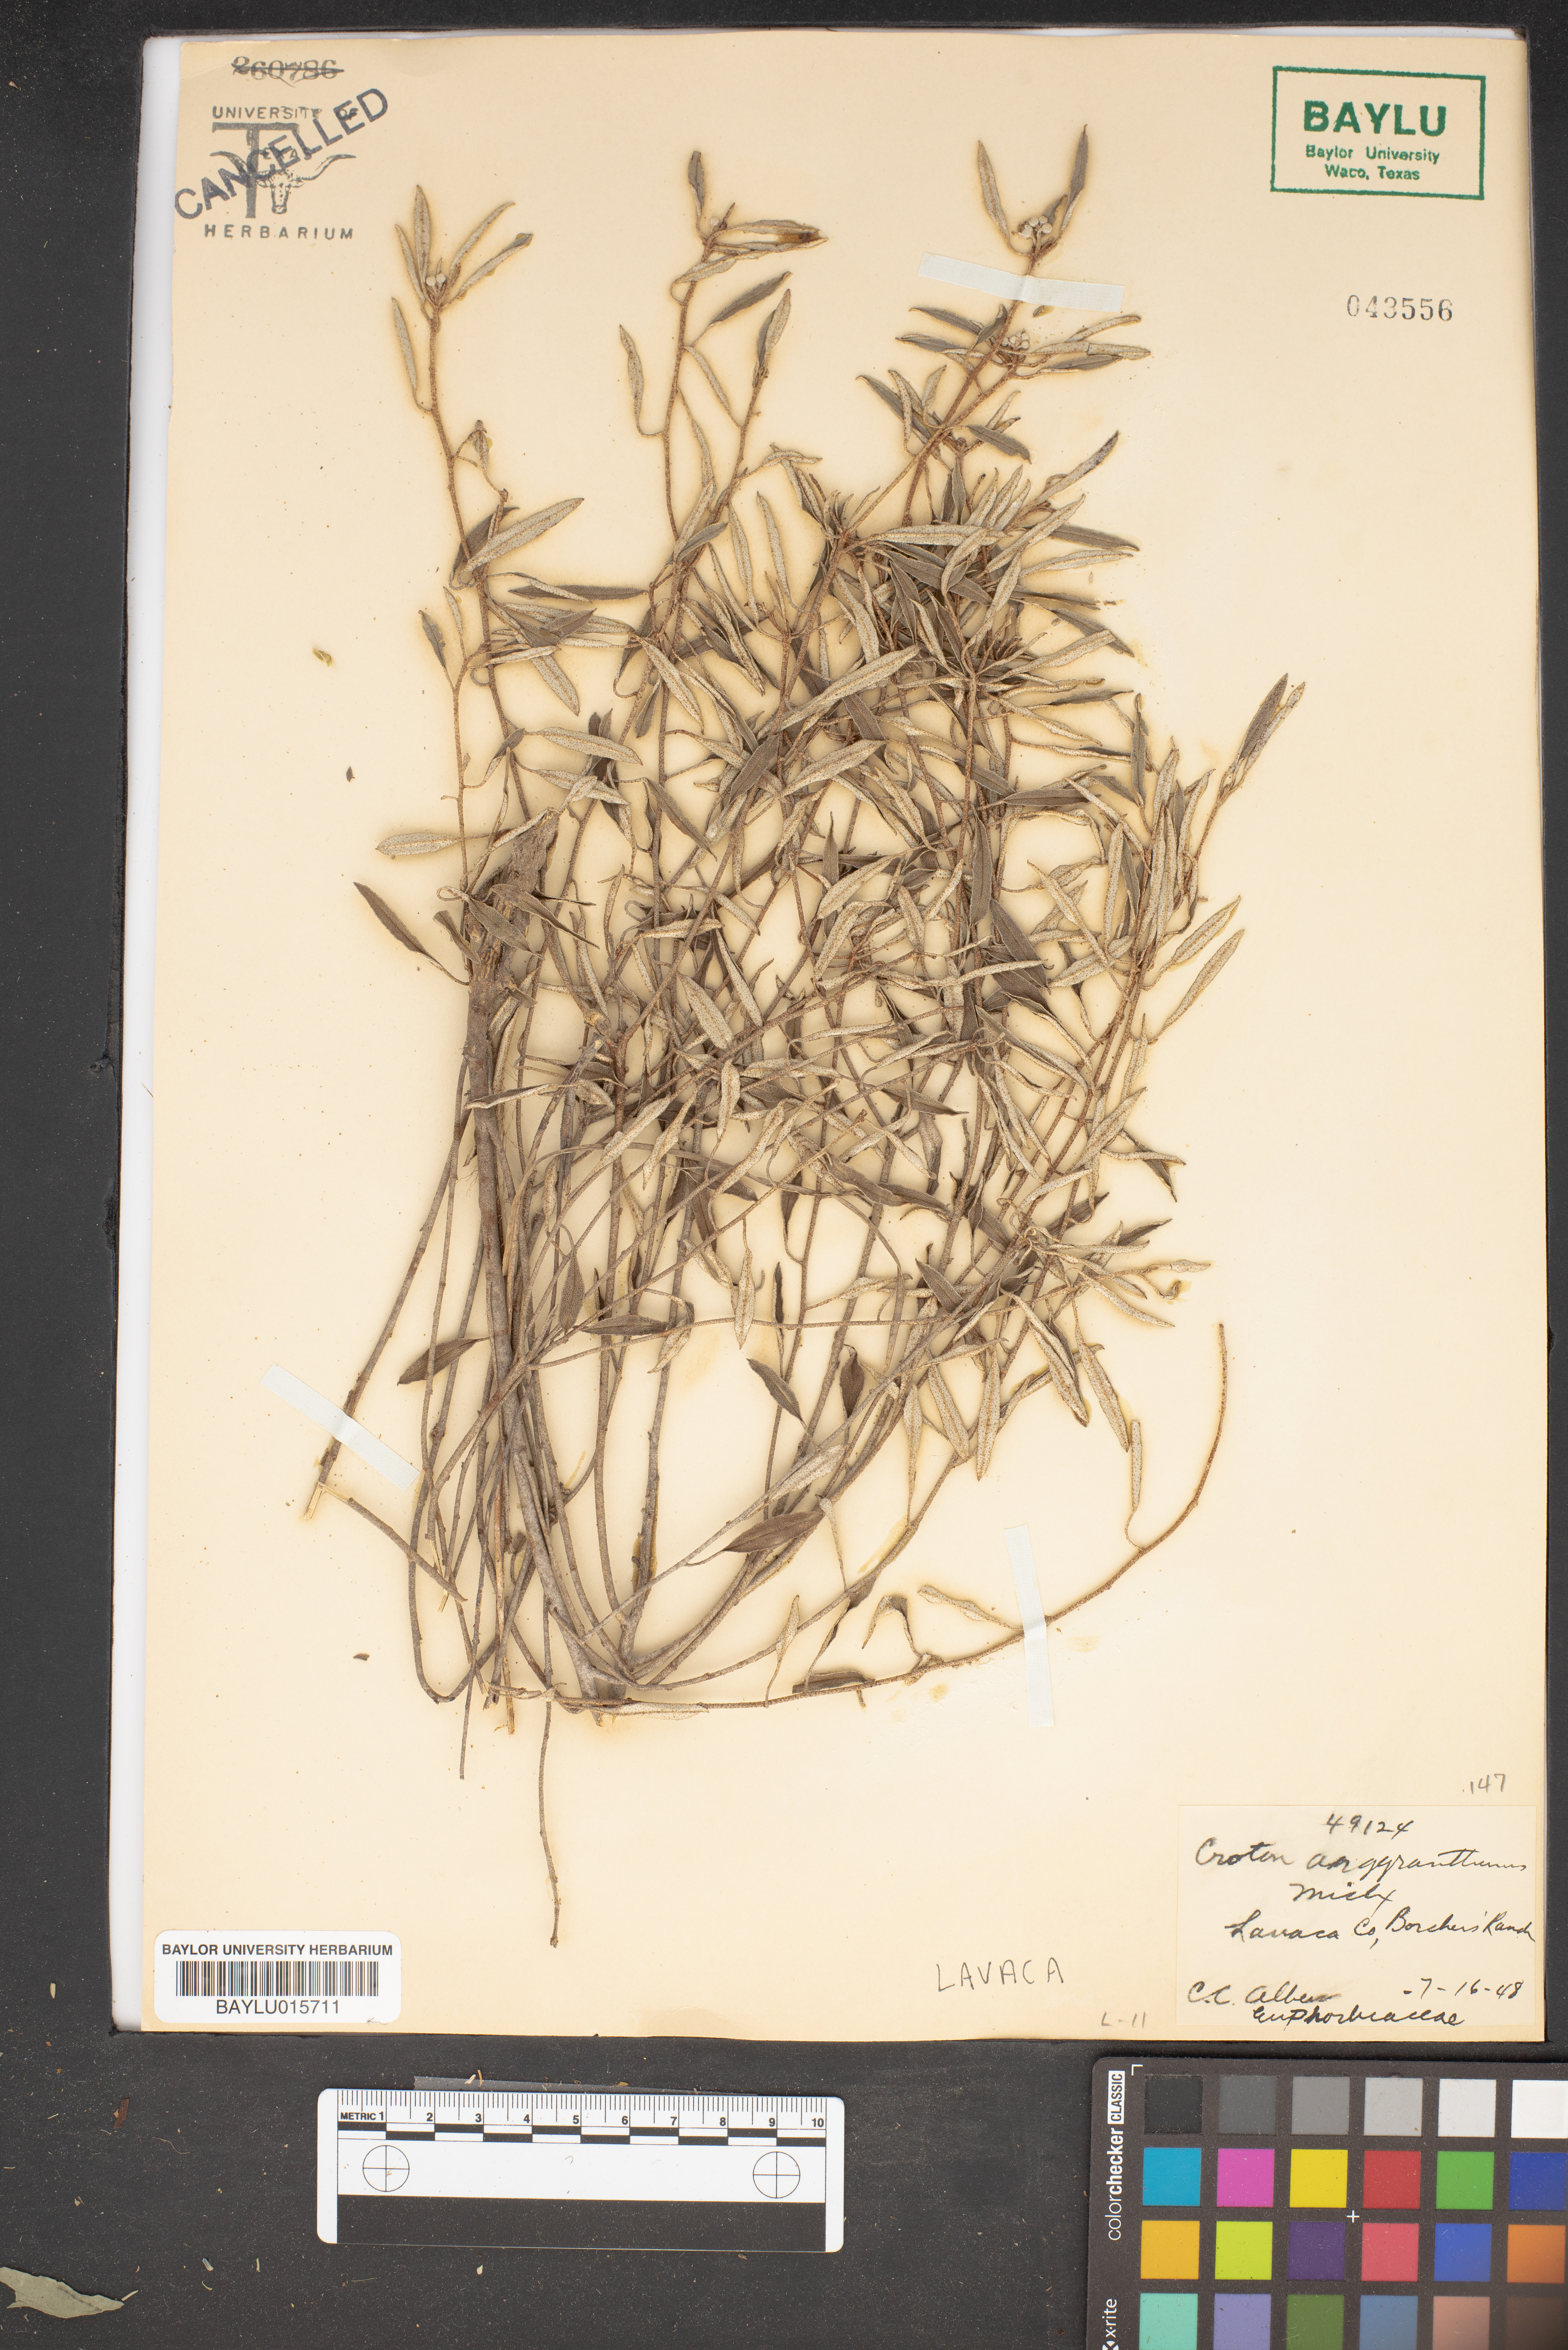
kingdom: Plantae
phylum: Tracheophyta
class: Magnoliopsida
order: Malpighiales
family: Euphorbiaceae
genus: Croton
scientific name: Croton argyranthemus
